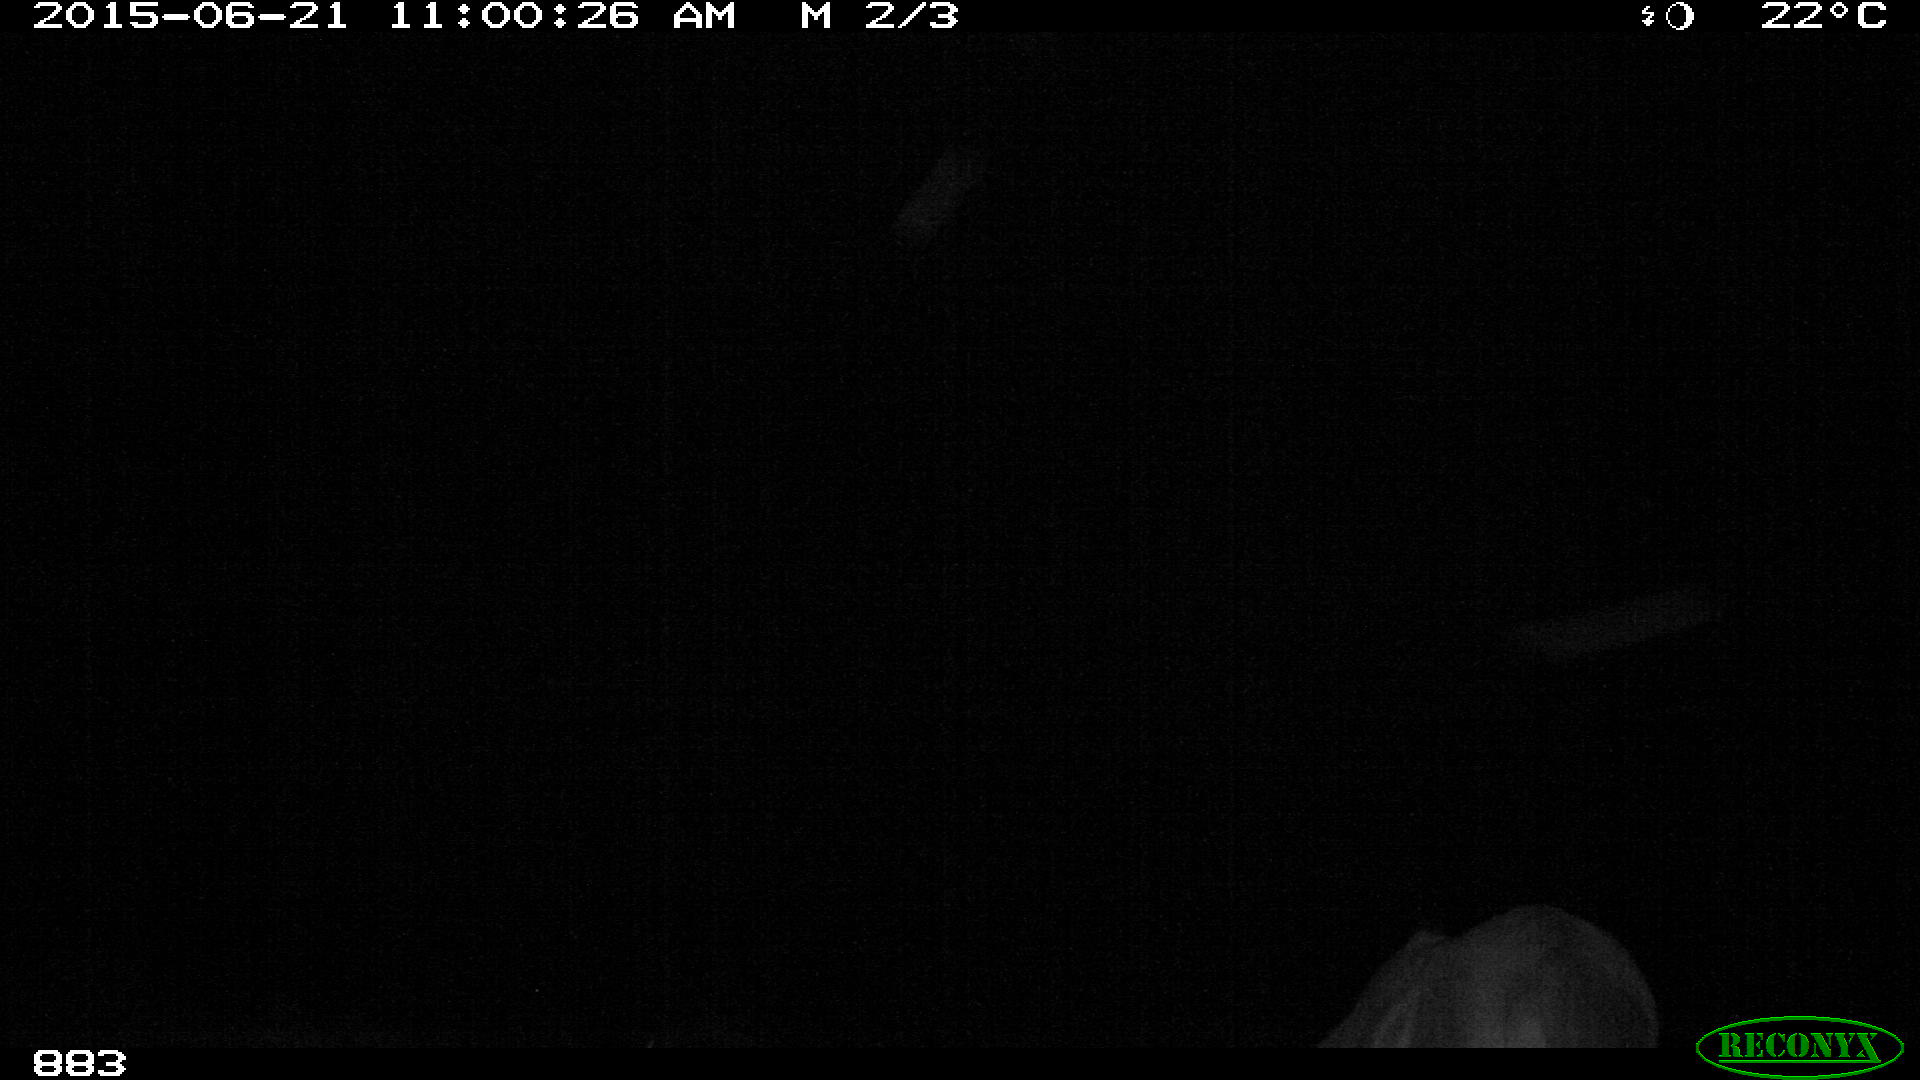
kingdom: Animalia
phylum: Chordata
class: Mammalia
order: Perissodactyla
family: Equidae
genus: Equus
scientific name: Equus caballus
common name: Horse
